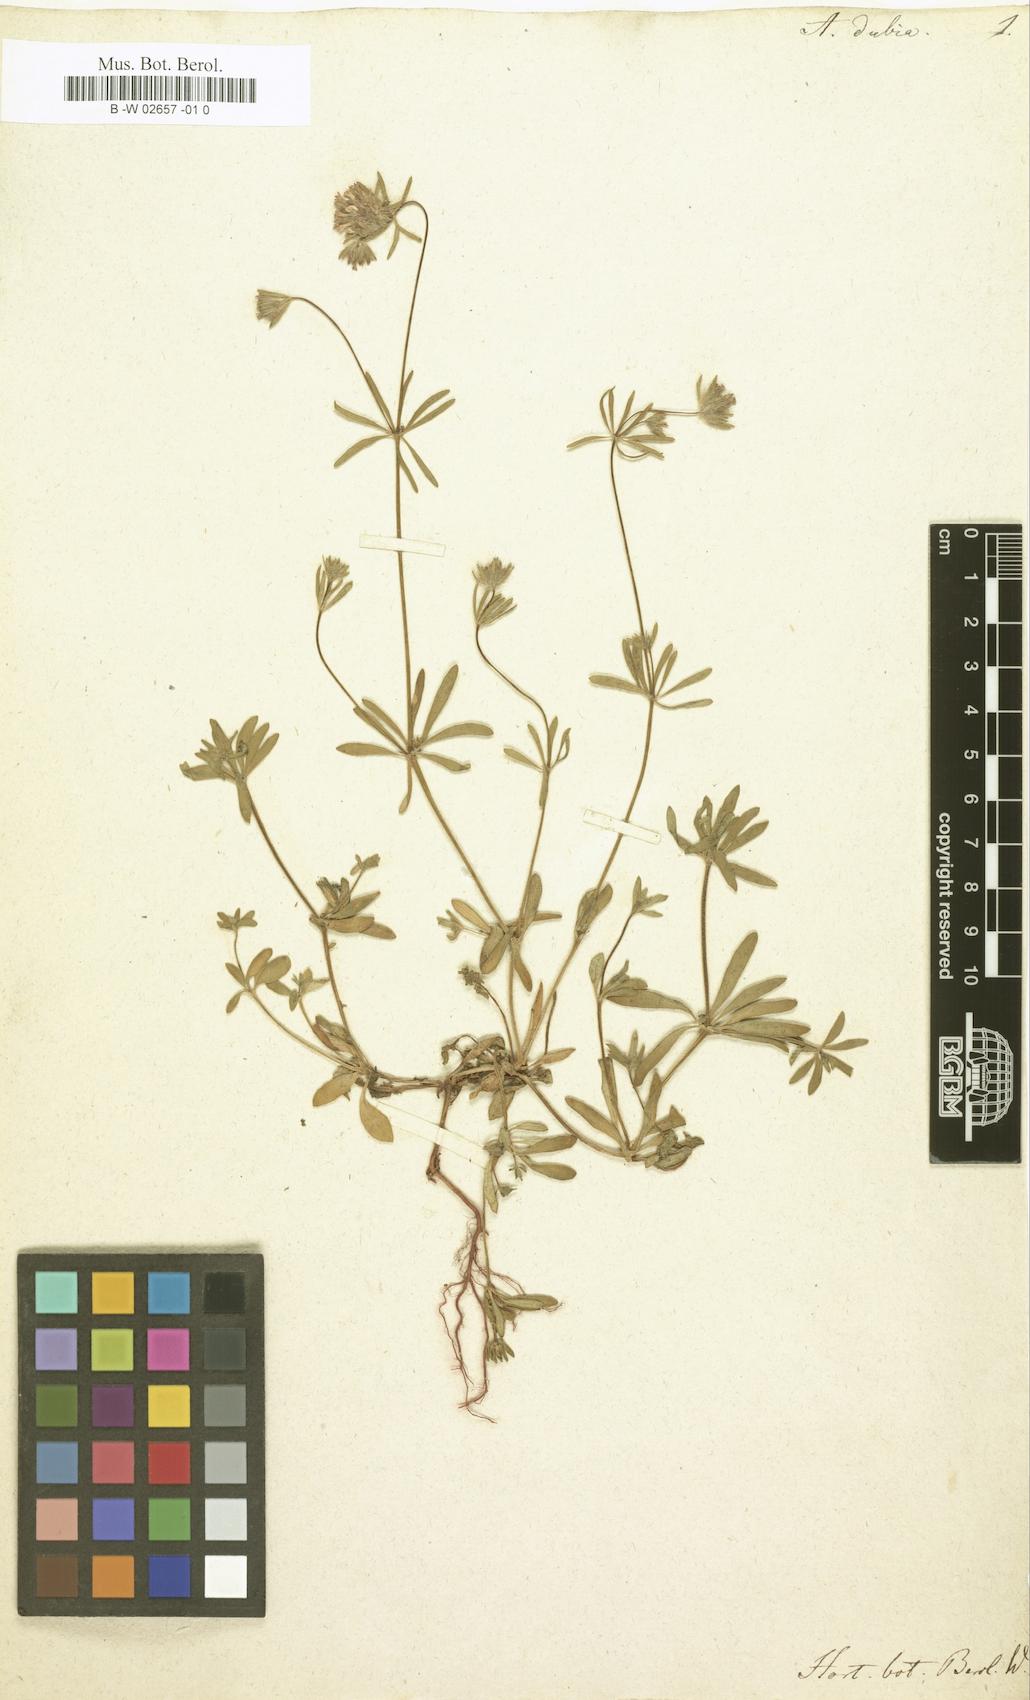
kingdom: Plantae
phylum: Tracheophyta
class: Magnoliopsida
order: Gentianales
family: Rubiaceae
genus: Asperula
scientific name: Asperula arvensis
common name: Blue woodruff
